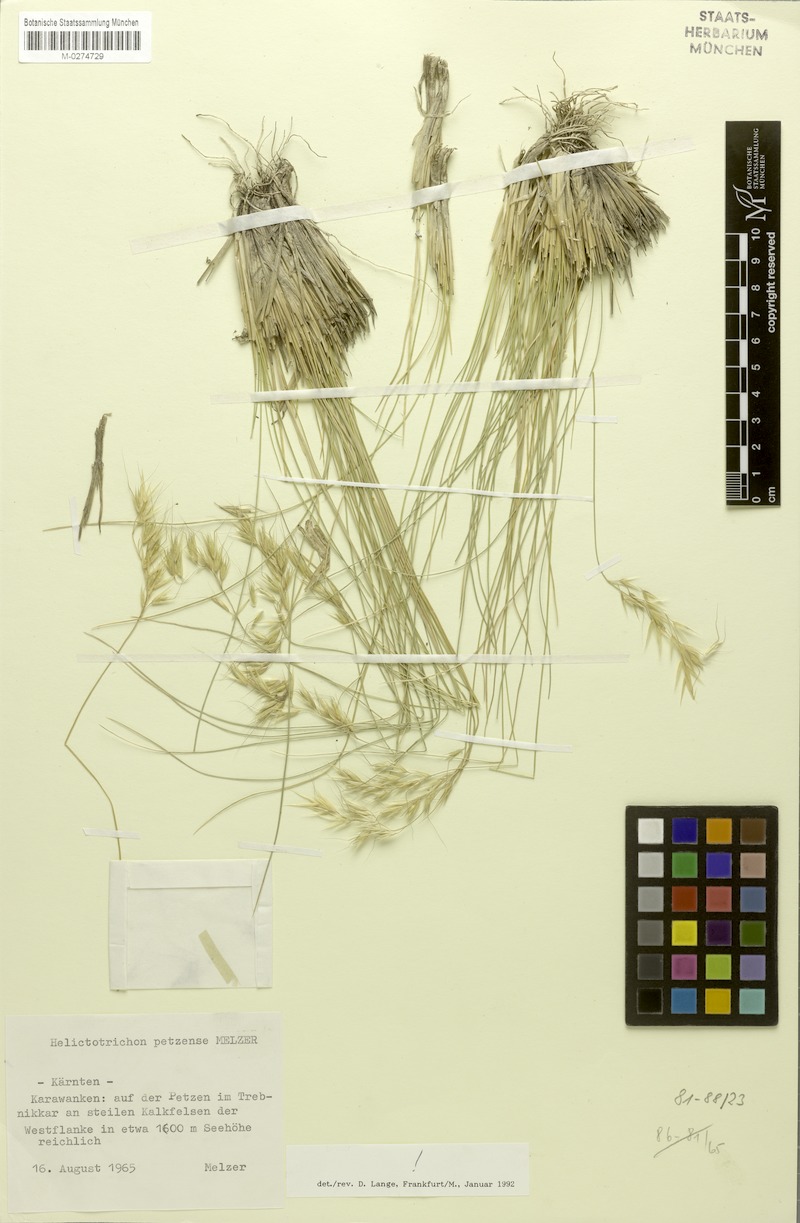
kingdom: Plantae
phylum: Tracheophyta
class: Liliopsida
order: Poales
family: Poaceae
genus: Helictotrichon
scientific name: Helictotrichon petzense
